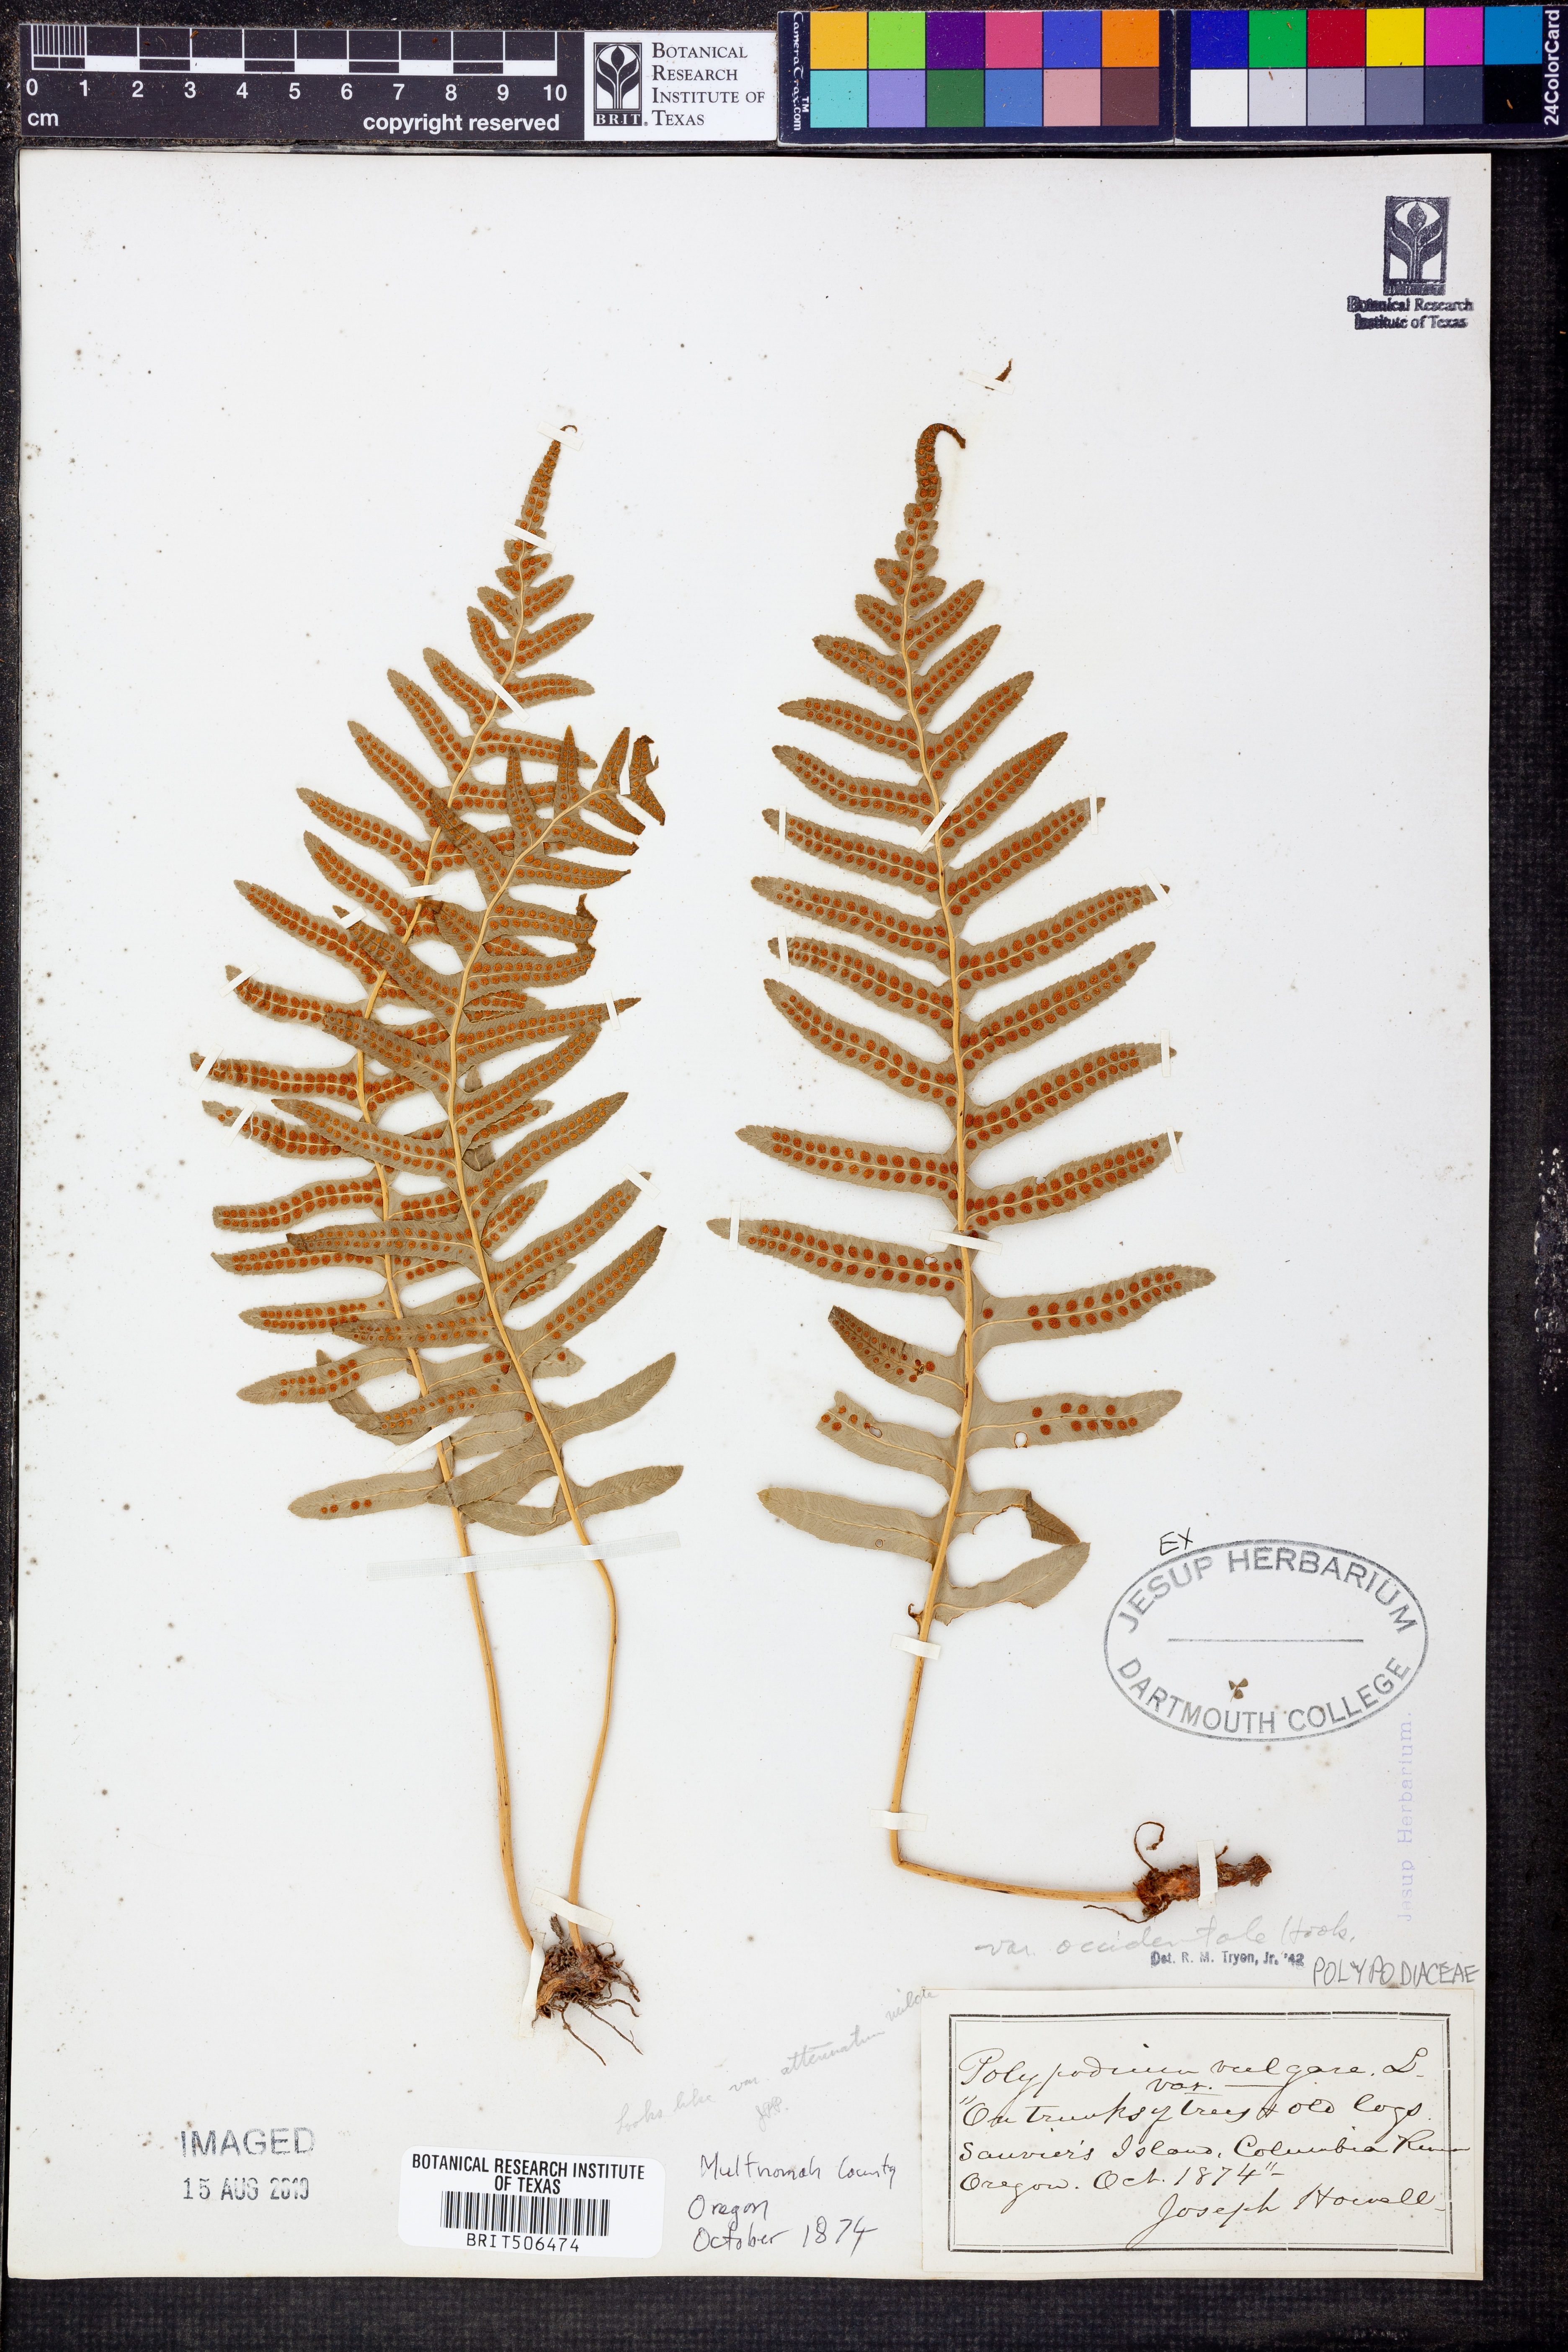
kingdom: Plantae
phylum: Tracheophyta
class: Polypodiopsida
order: Polypodiales
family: Polypodiaceae
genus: Polypodium
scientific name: Polypodium glycyrrhiza
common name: Licorice fern
